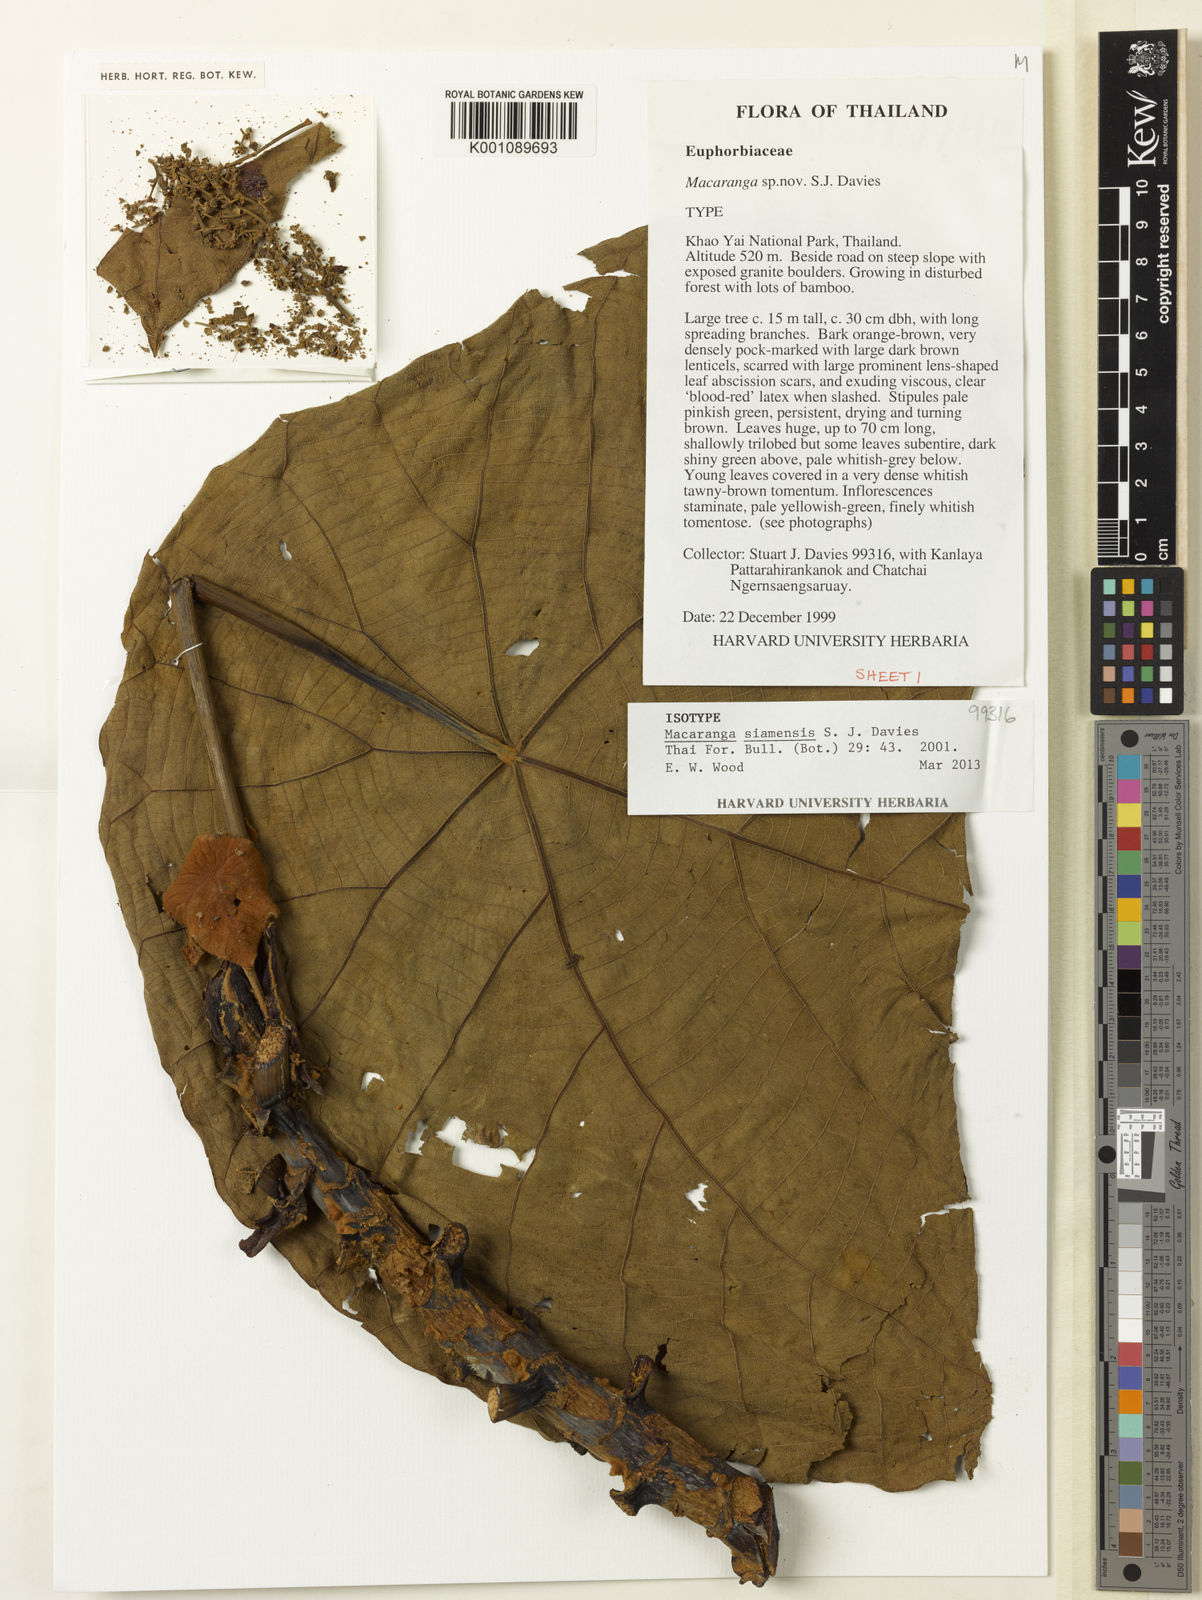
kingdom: Plantae
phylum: Tracheophyta
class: Magnoliopsida
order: Malpighiales
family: Euphorbiaceae
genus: Macaranga
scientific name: Macaranga siamensis
